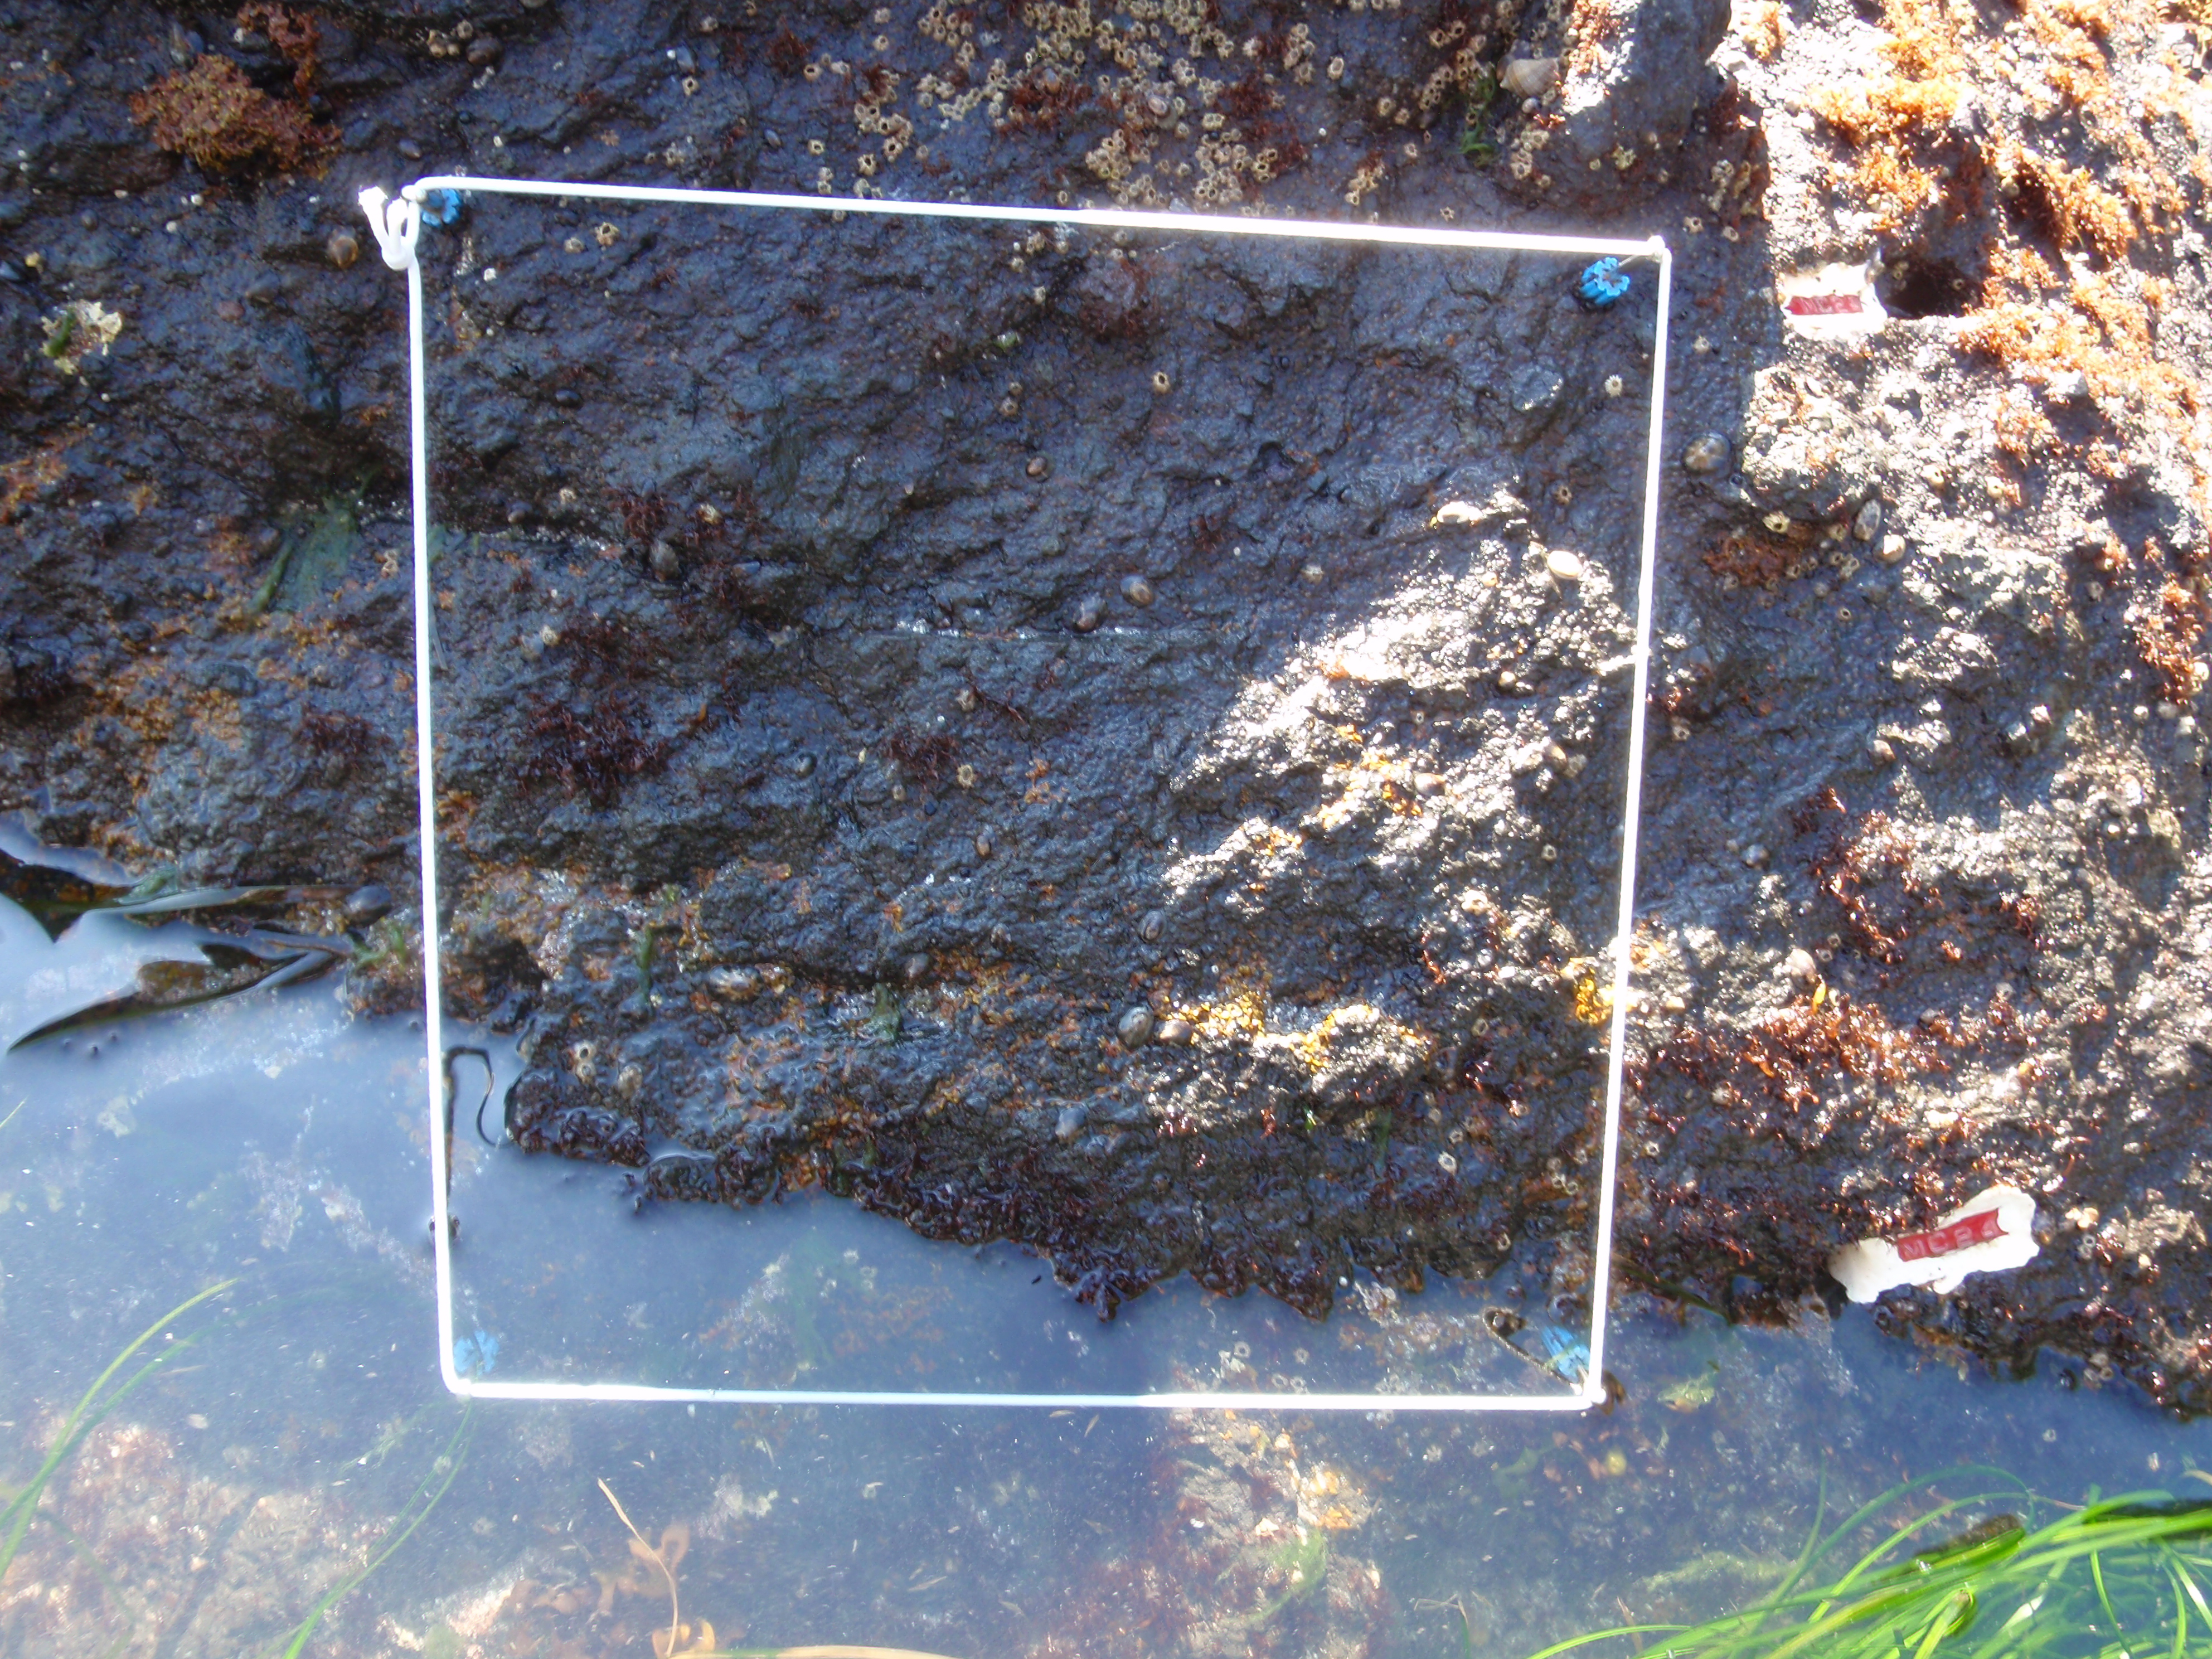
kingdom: Plantae
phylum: Rhodophyta
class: Florideophyceae
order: Gigartinales
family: Endocladiaceae
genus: Gloiopeltis
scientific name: Gloiopeltis furcata
